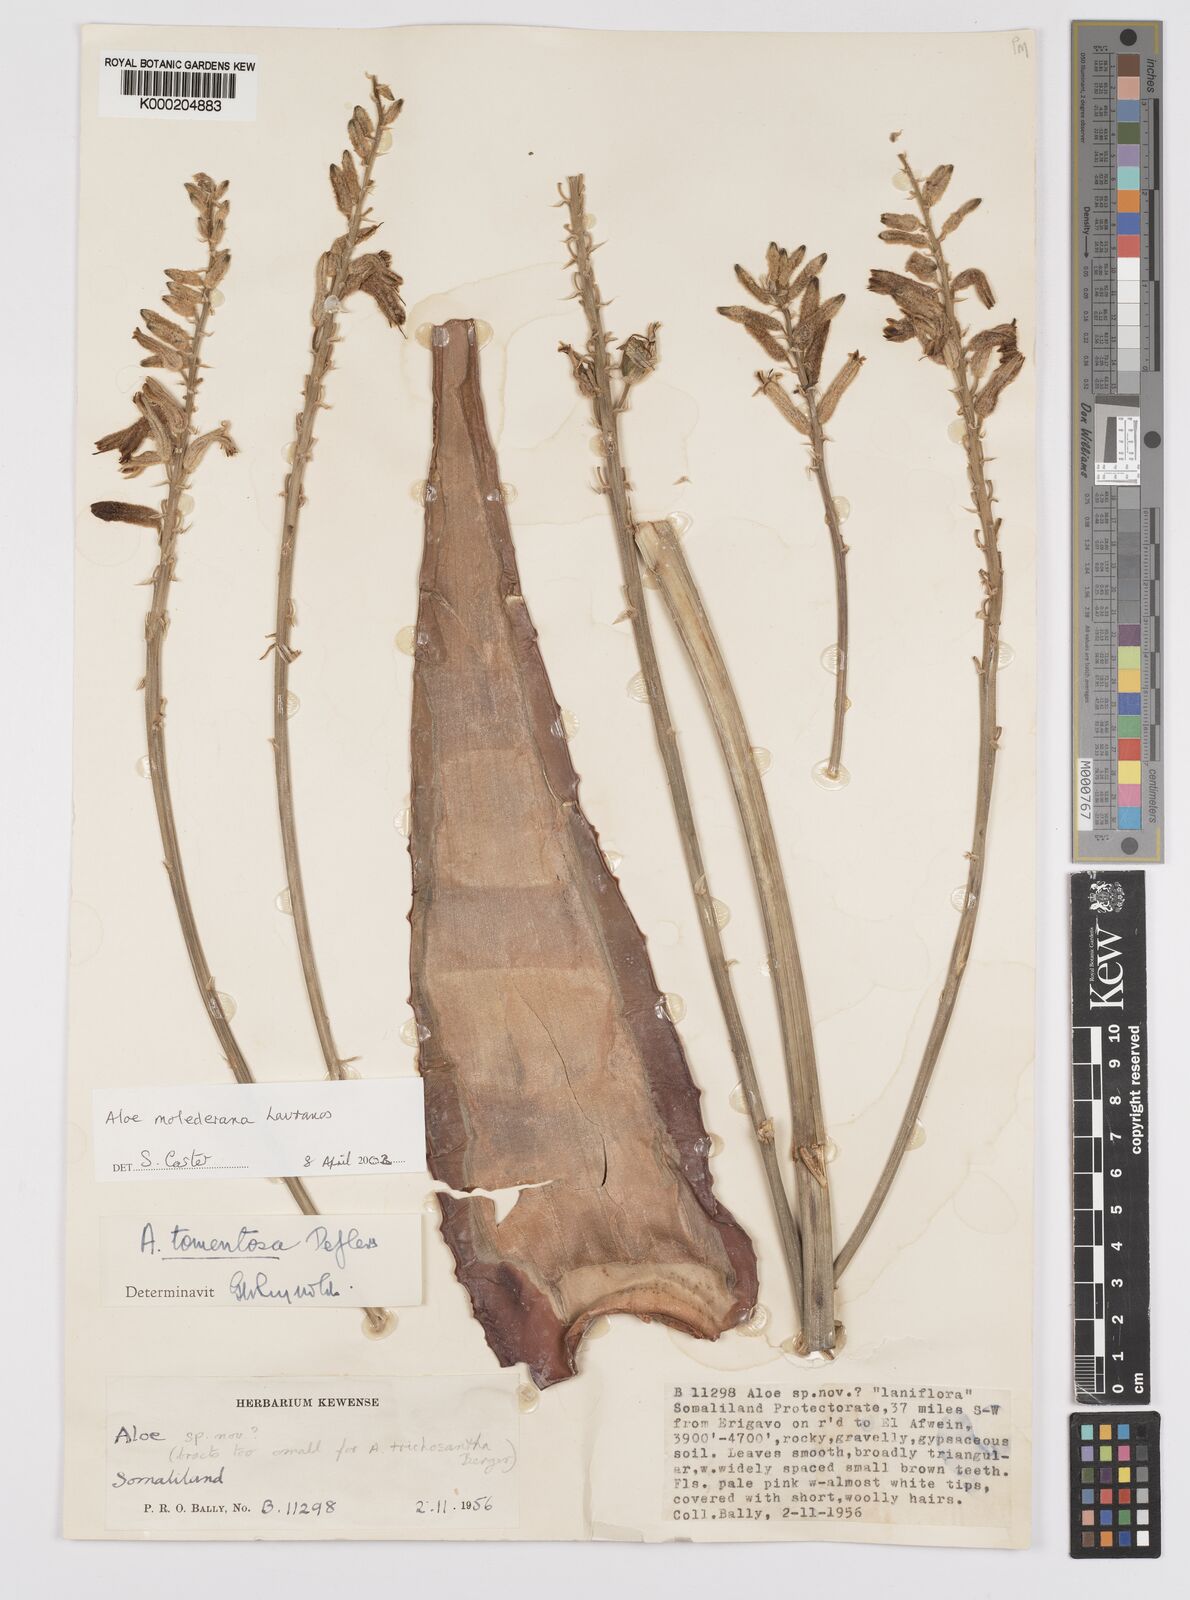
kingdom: Plantae
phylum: Tracheophyta
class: Liliopsida
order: Asparagales
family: Asphodelaceae
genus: Aloe
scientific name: Aloe molederana
